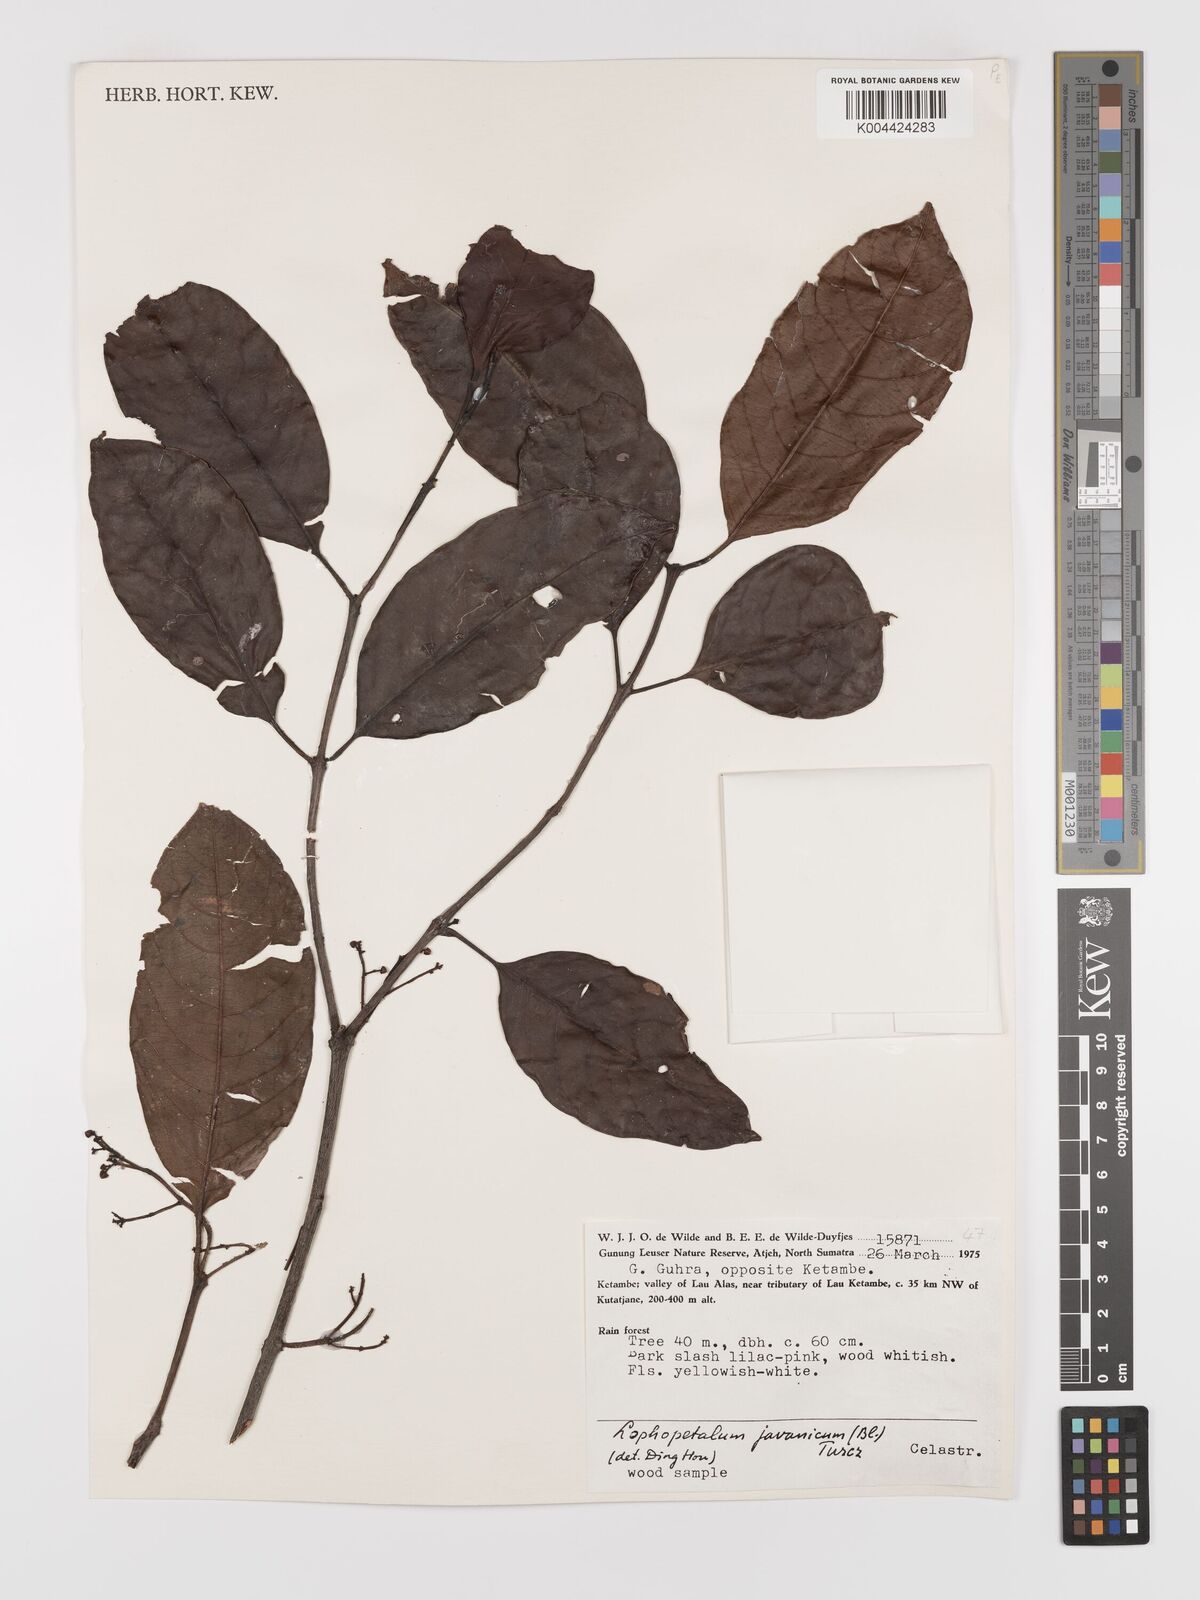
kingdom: Plantae
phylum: Tracheophyta
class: Magnoliopsida
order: Celastrales
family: Celastraceae
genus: Lophopetalum
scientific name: Lophopetalum javanicum
